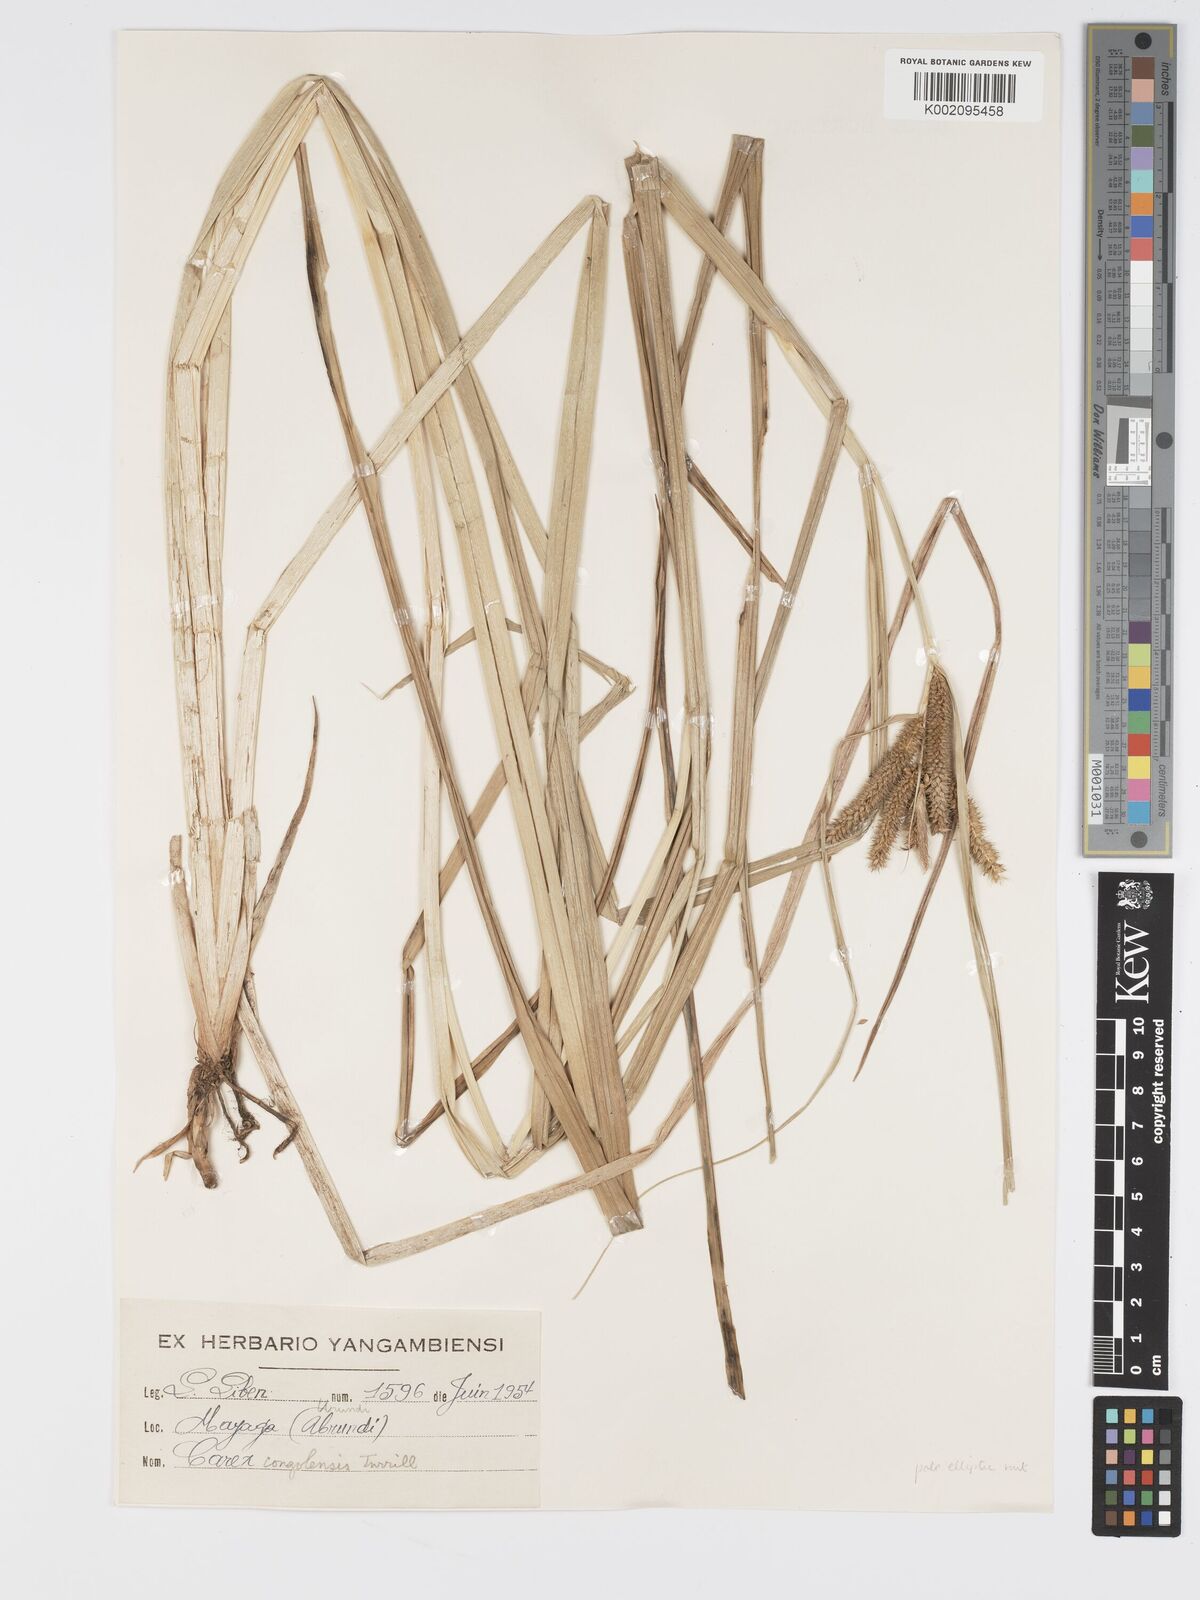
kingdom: Plantae
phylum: Tracheophyta
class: Liliopsida
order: Poales
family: Cyperaceae
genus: Carex
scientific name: Carex congolensis
